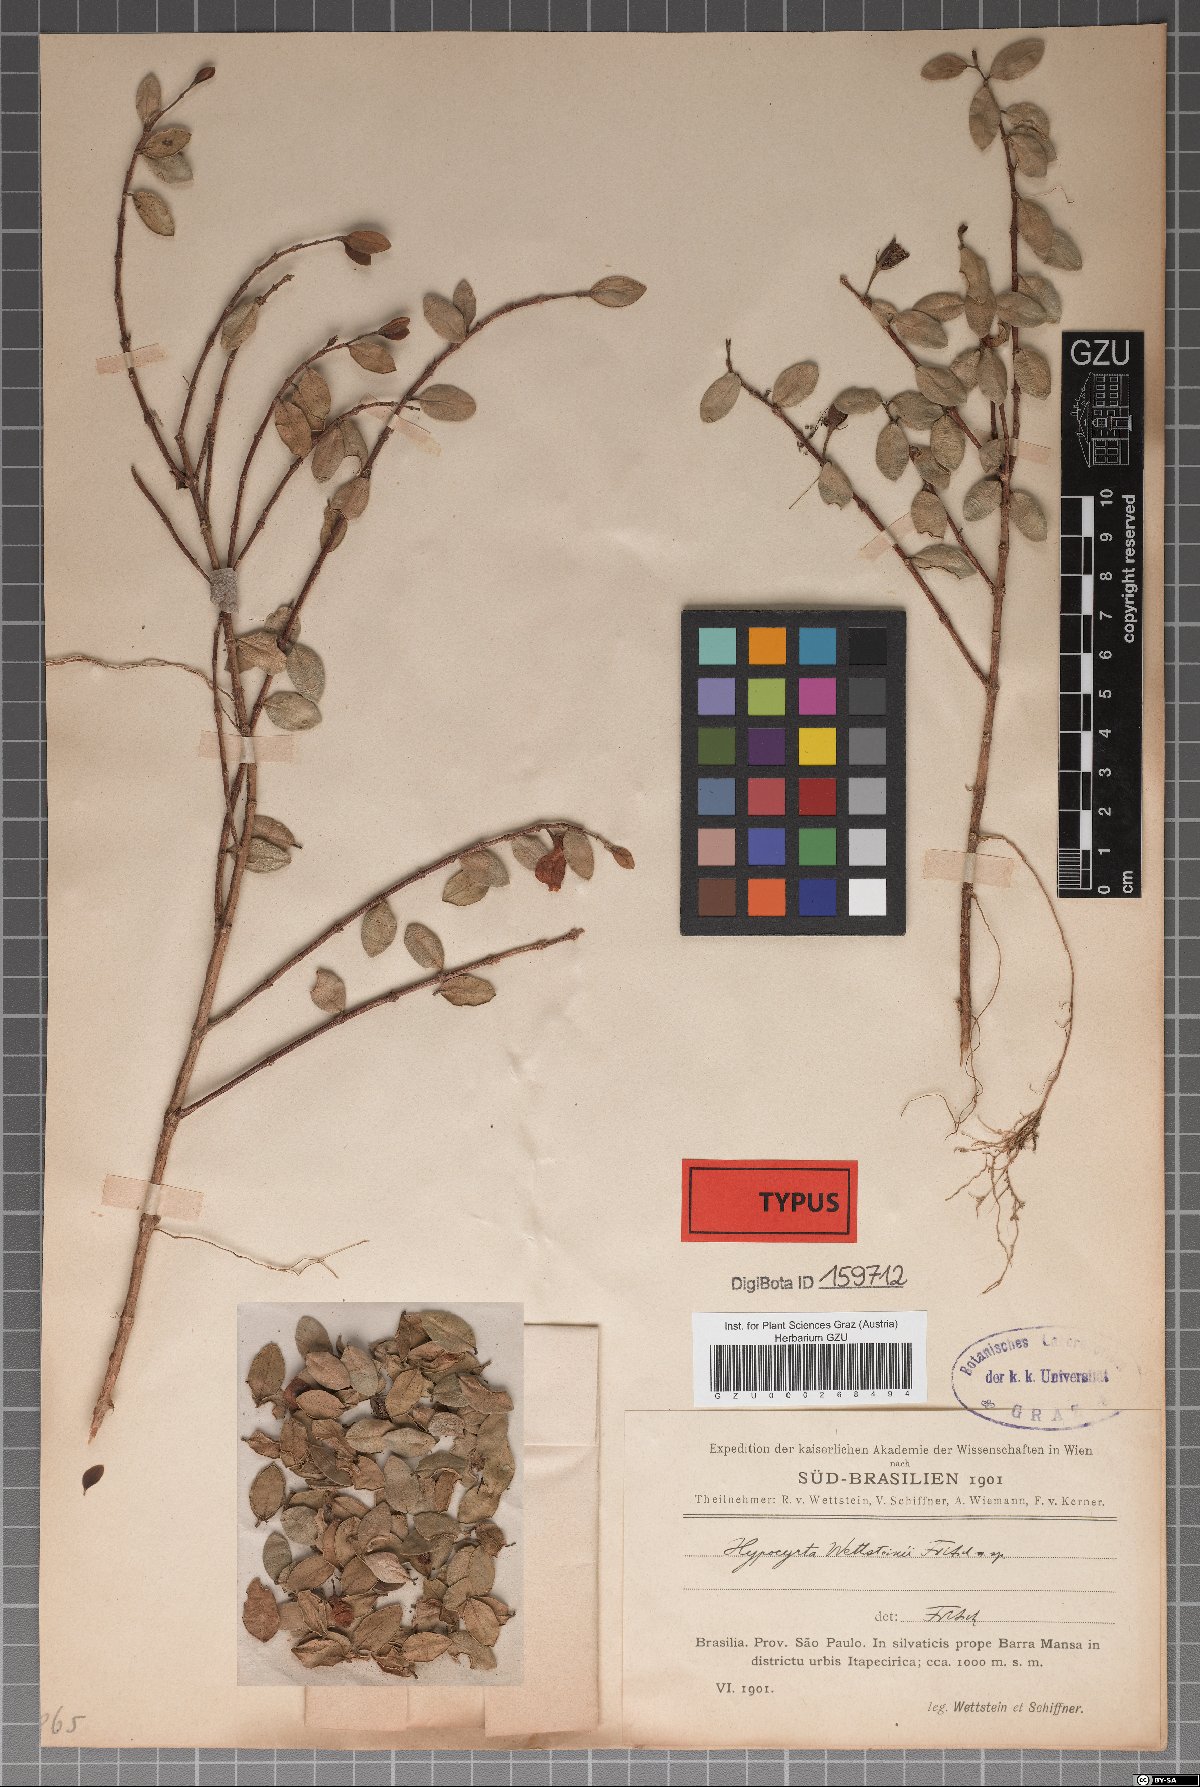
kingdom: Plantae
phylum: Tracheophyta
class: Magnoliopsida
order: Lamiales
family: Gesneriaceae
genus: Nematanthus
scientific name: Nematanthus wettsteinii
